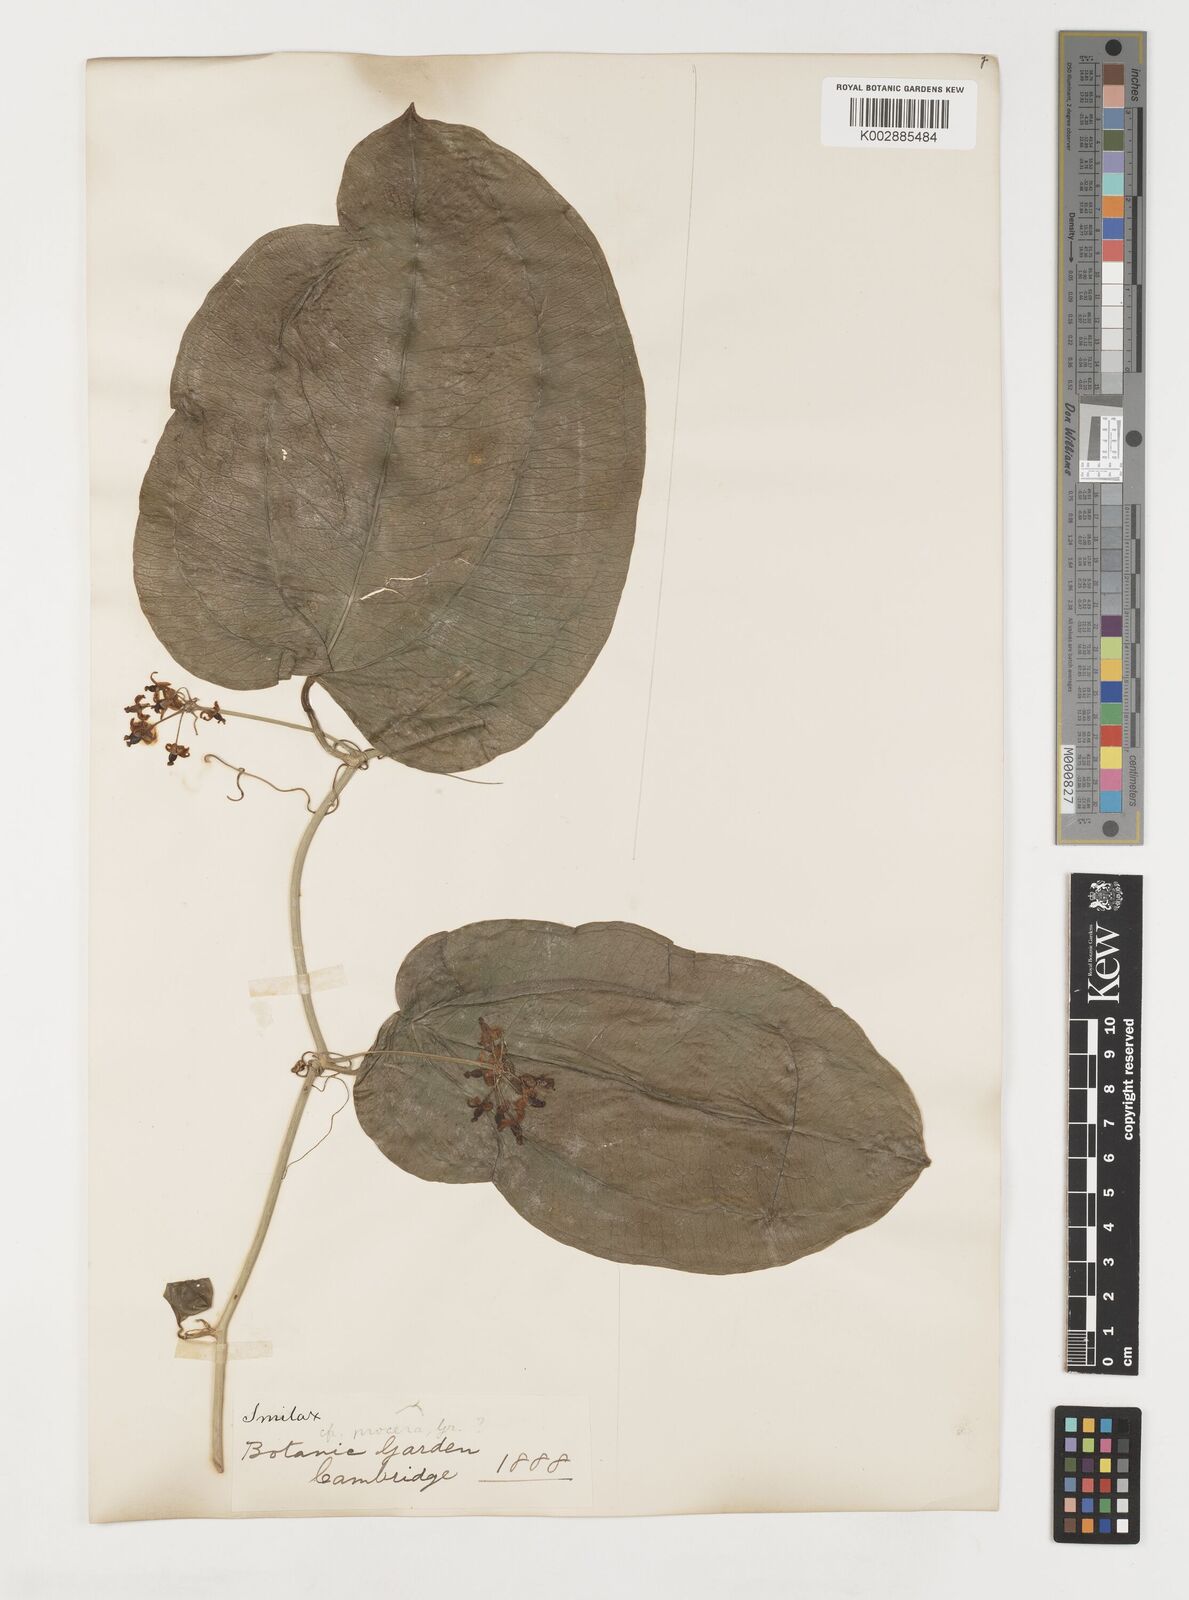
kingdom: Plantae
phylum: Tracheophyta
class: Liliopsida
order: Liliales
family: Smilacaceae
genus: Smilax
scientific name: Smilax
